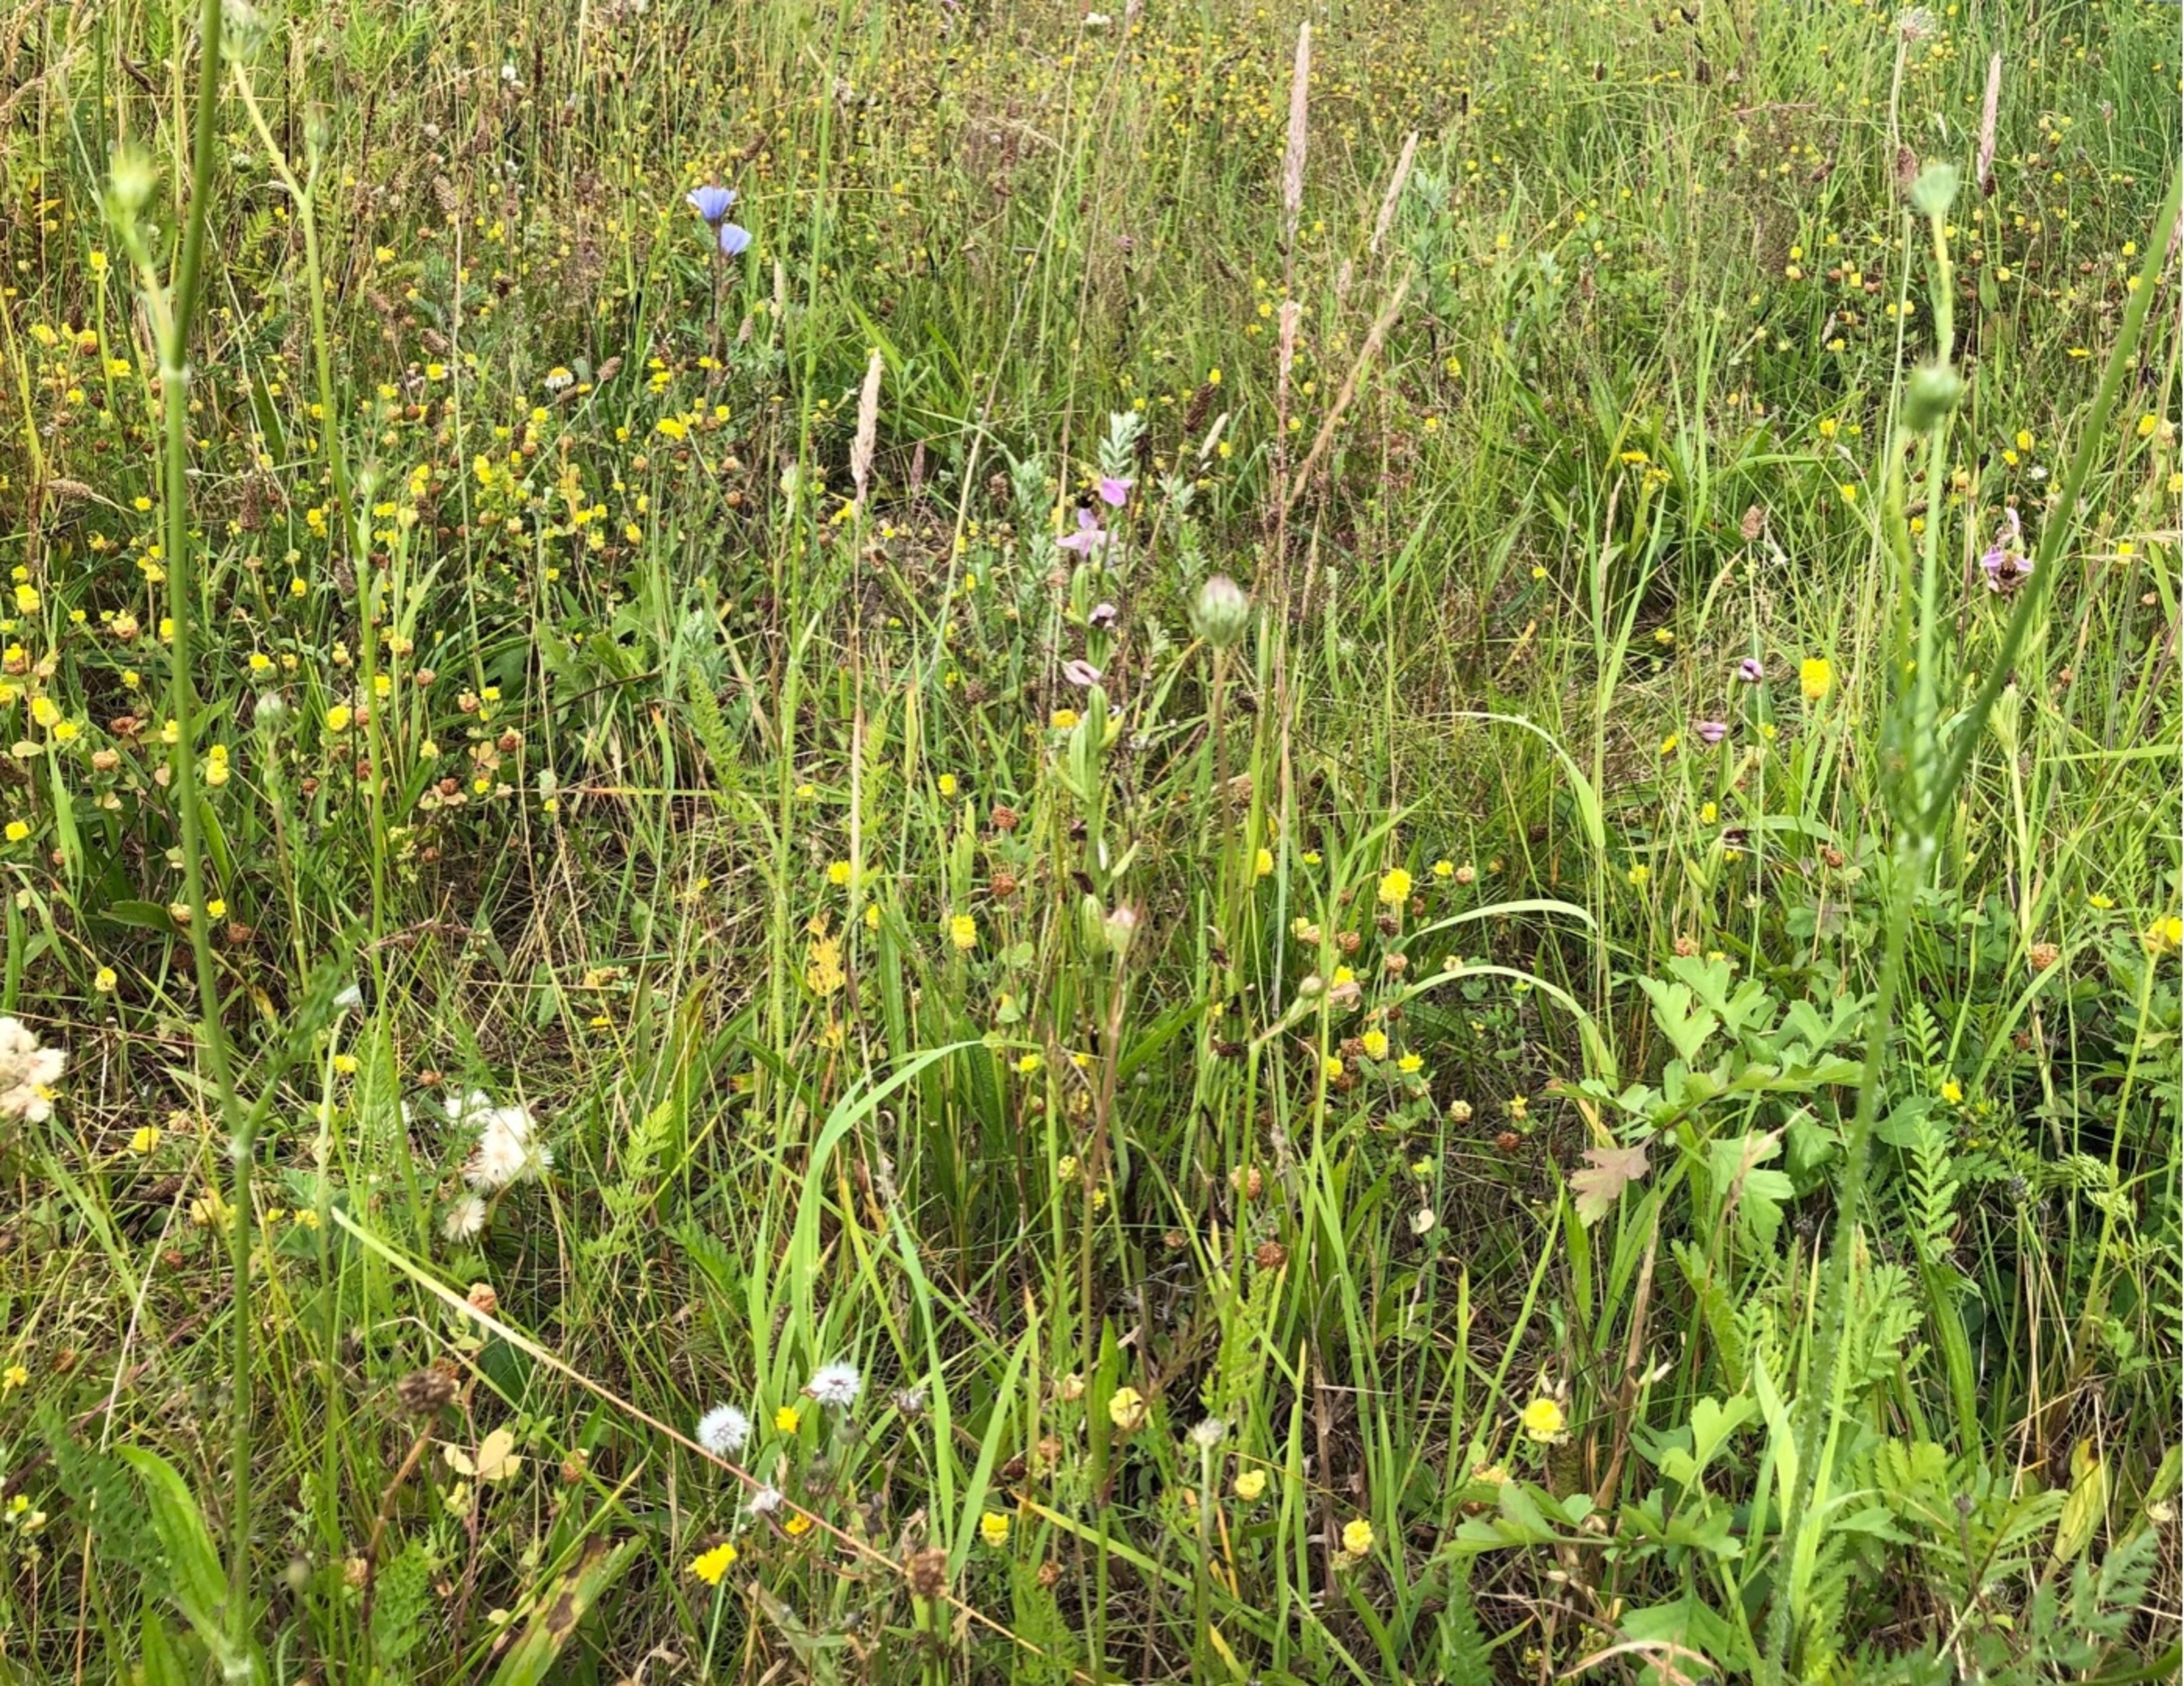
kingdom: Plantae
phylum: Tracheophyta
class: Liliopsida
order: Asparagales
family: Orchidaceae
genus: Ophrys
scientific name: Ophrys apifera
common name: Biblomst
